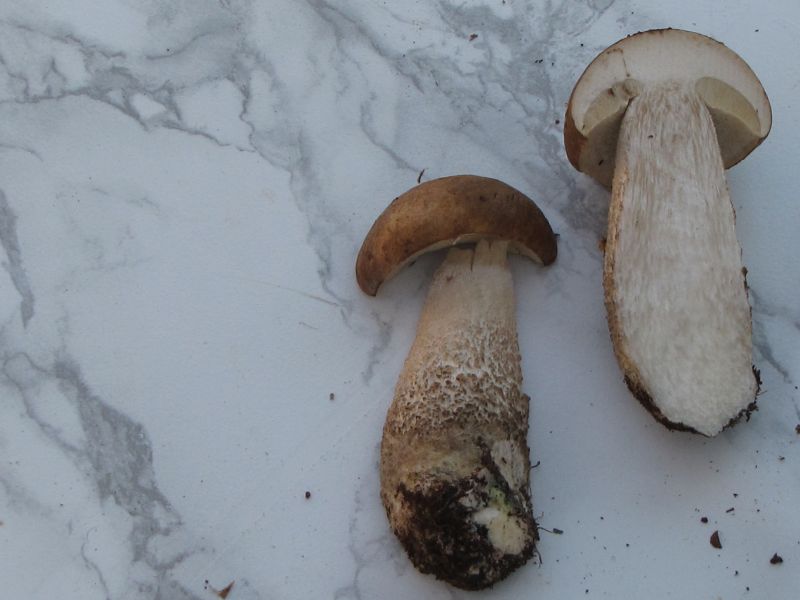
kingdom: Fungi
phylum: Basidiomycota
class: Agaricomycetes
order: Boletales
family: Boletaceae
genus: Leccinum
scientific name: Leccinum scabrum
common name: brun skælrørhat
